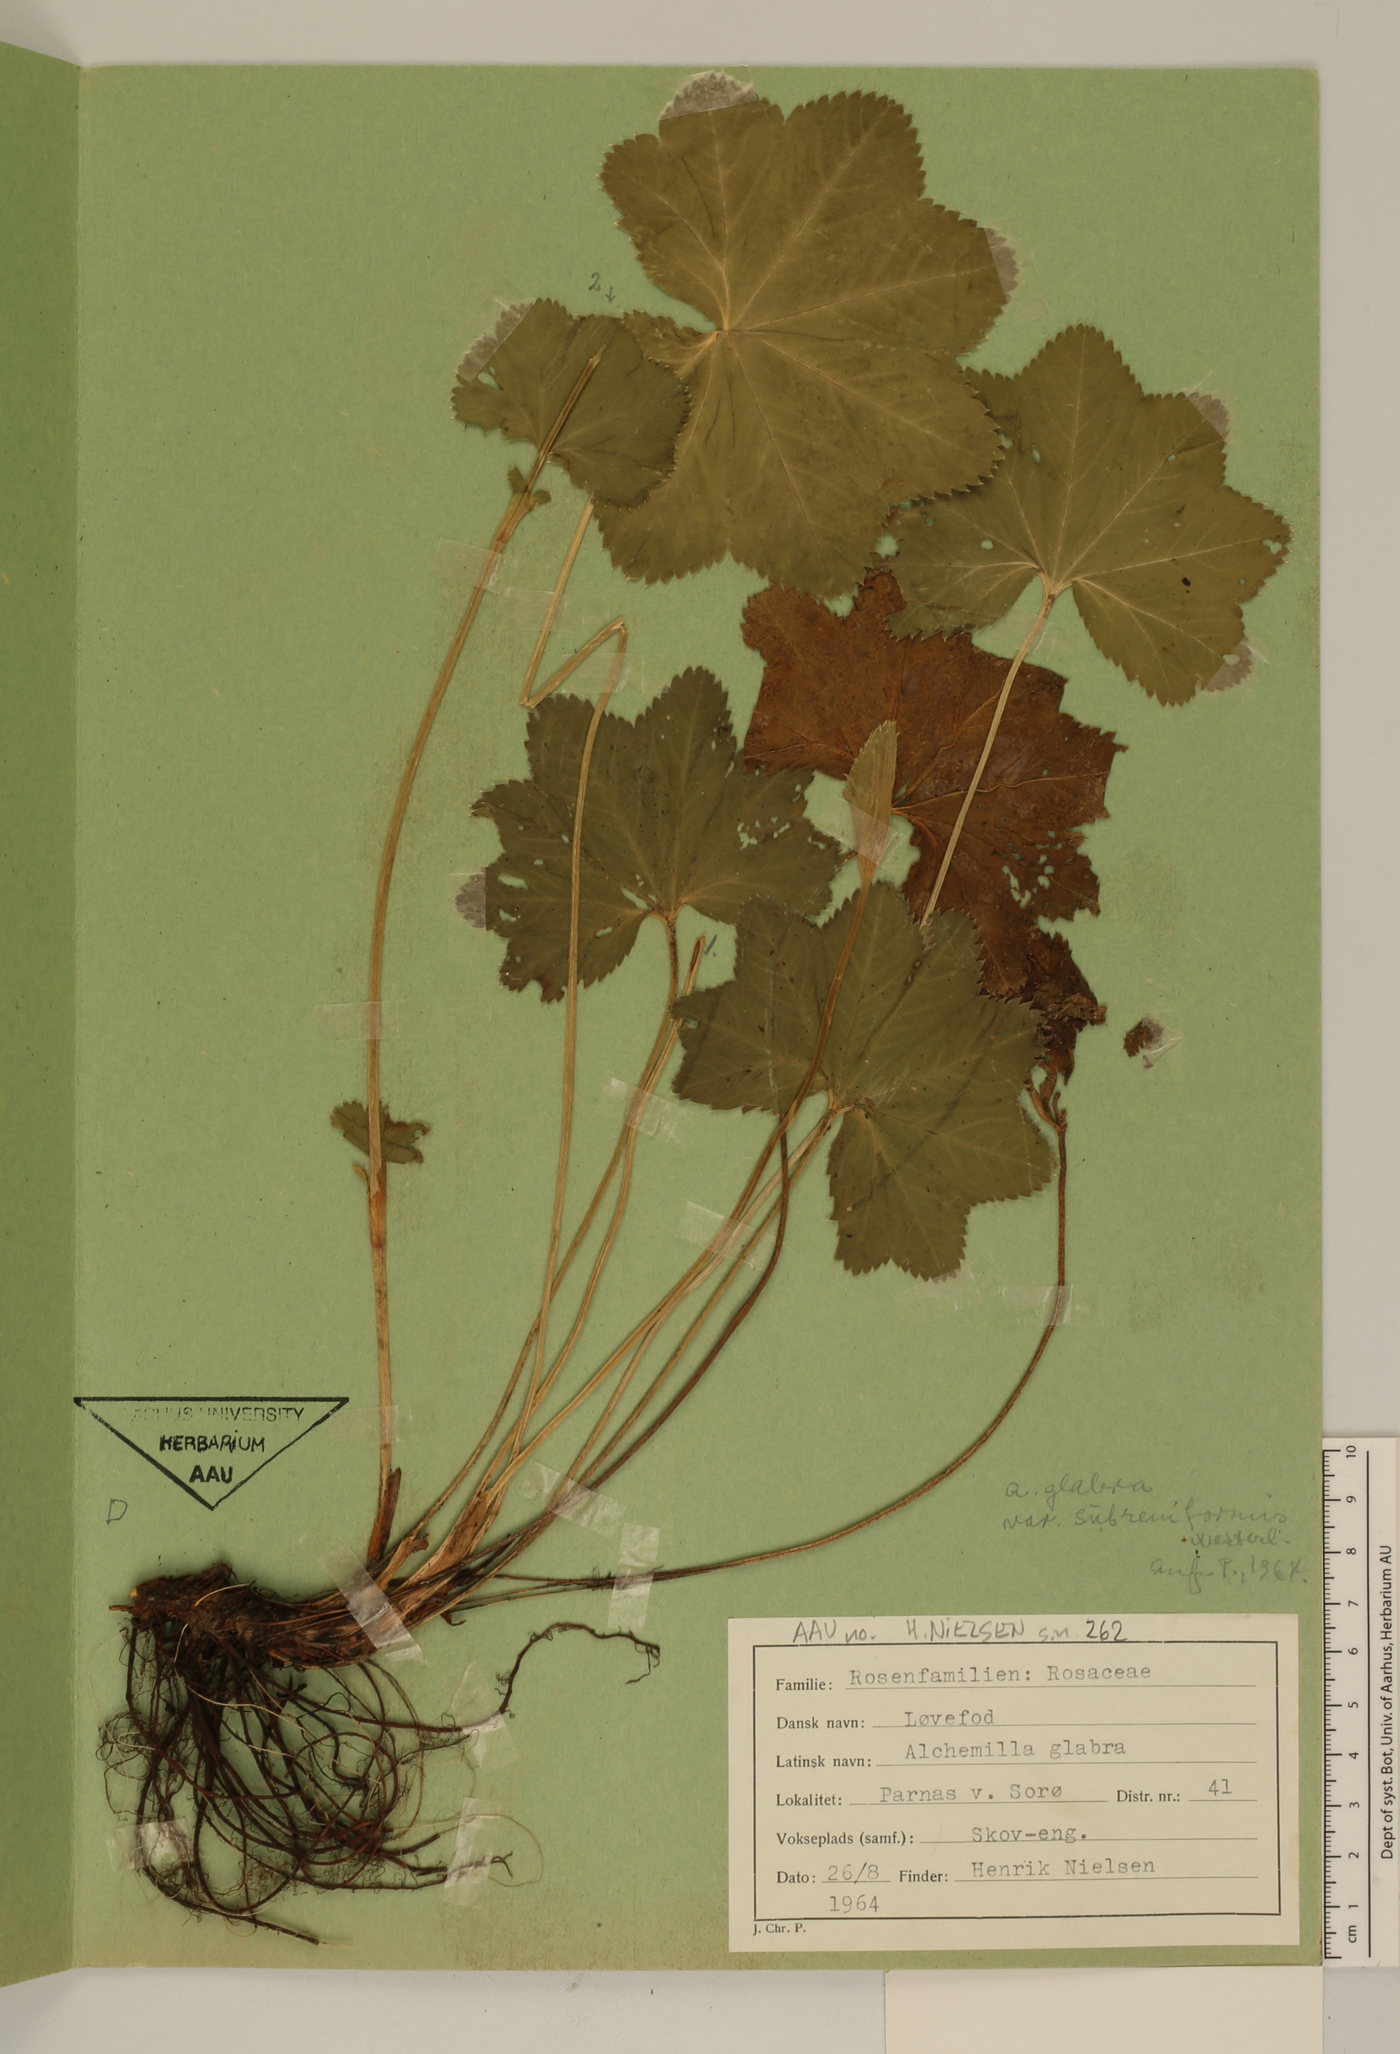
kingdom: Plantae
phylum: Tracheophyta
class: Magnoliopsida
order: Rosales
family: Rosaceae
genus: Alchemilla
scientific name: Alchemilla glabra
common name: Smooth lady's-mantle
